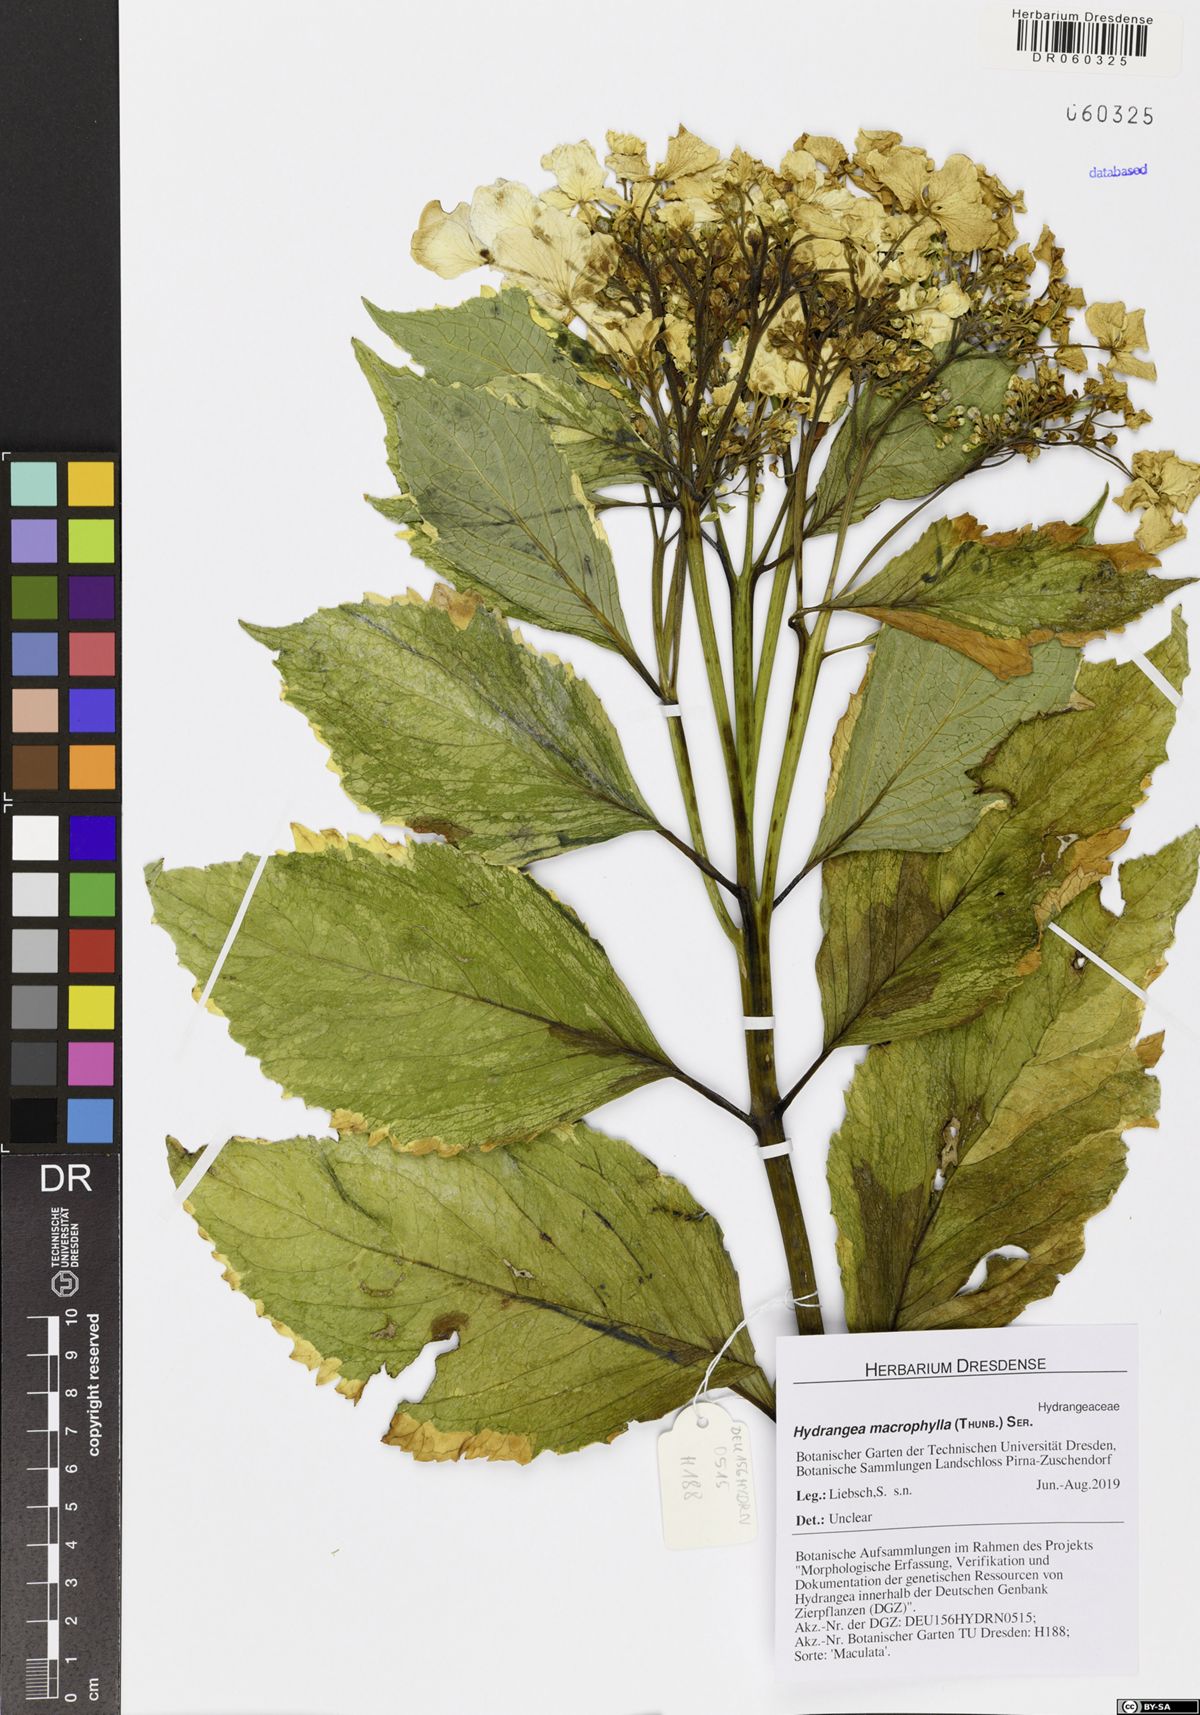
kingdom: Plantae
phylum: Tracheophyta
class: Magnoliopsida
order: Cornales
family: Hydrangeaceae
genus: Hydrangea
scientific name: Hydrangea macrophylla
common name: Hydrangea
